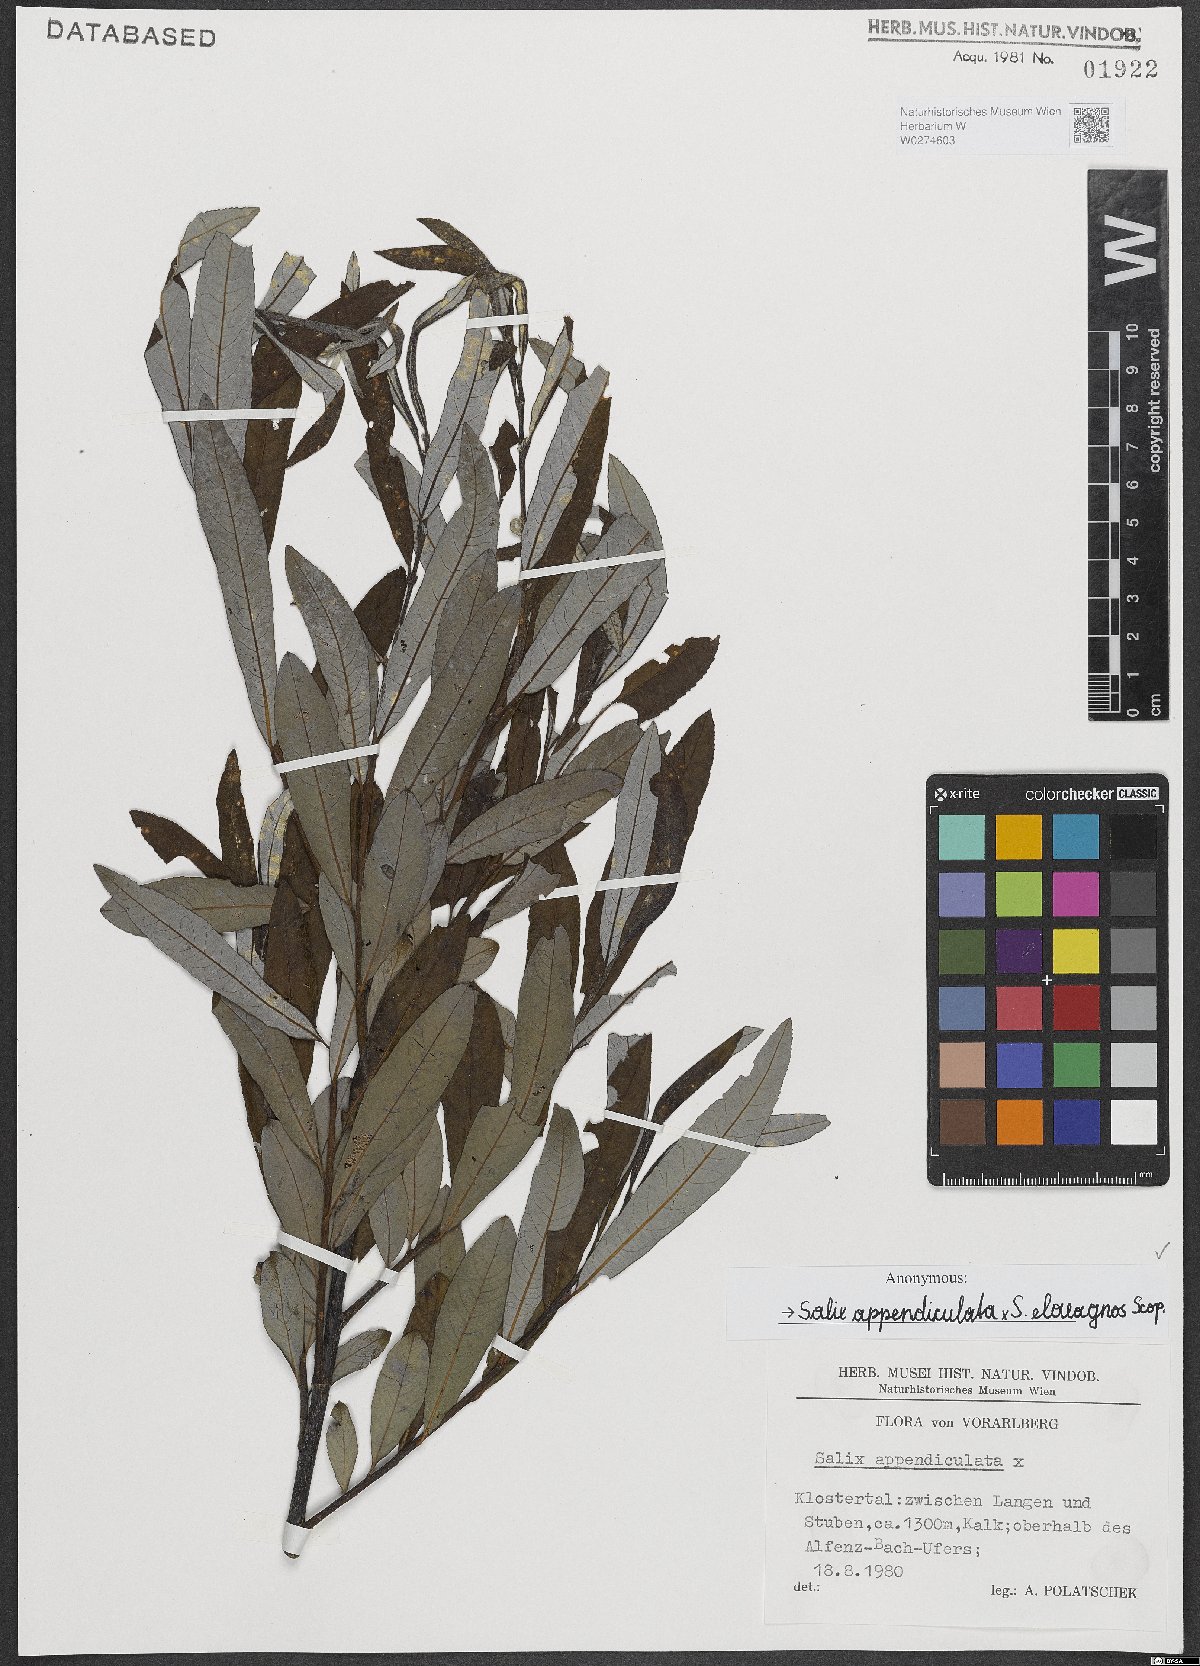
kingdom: Plantae
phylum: Tracheophyta
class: Magnoliopsida
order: Malpighiales
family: Salicaceae
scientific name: Salicaceae
